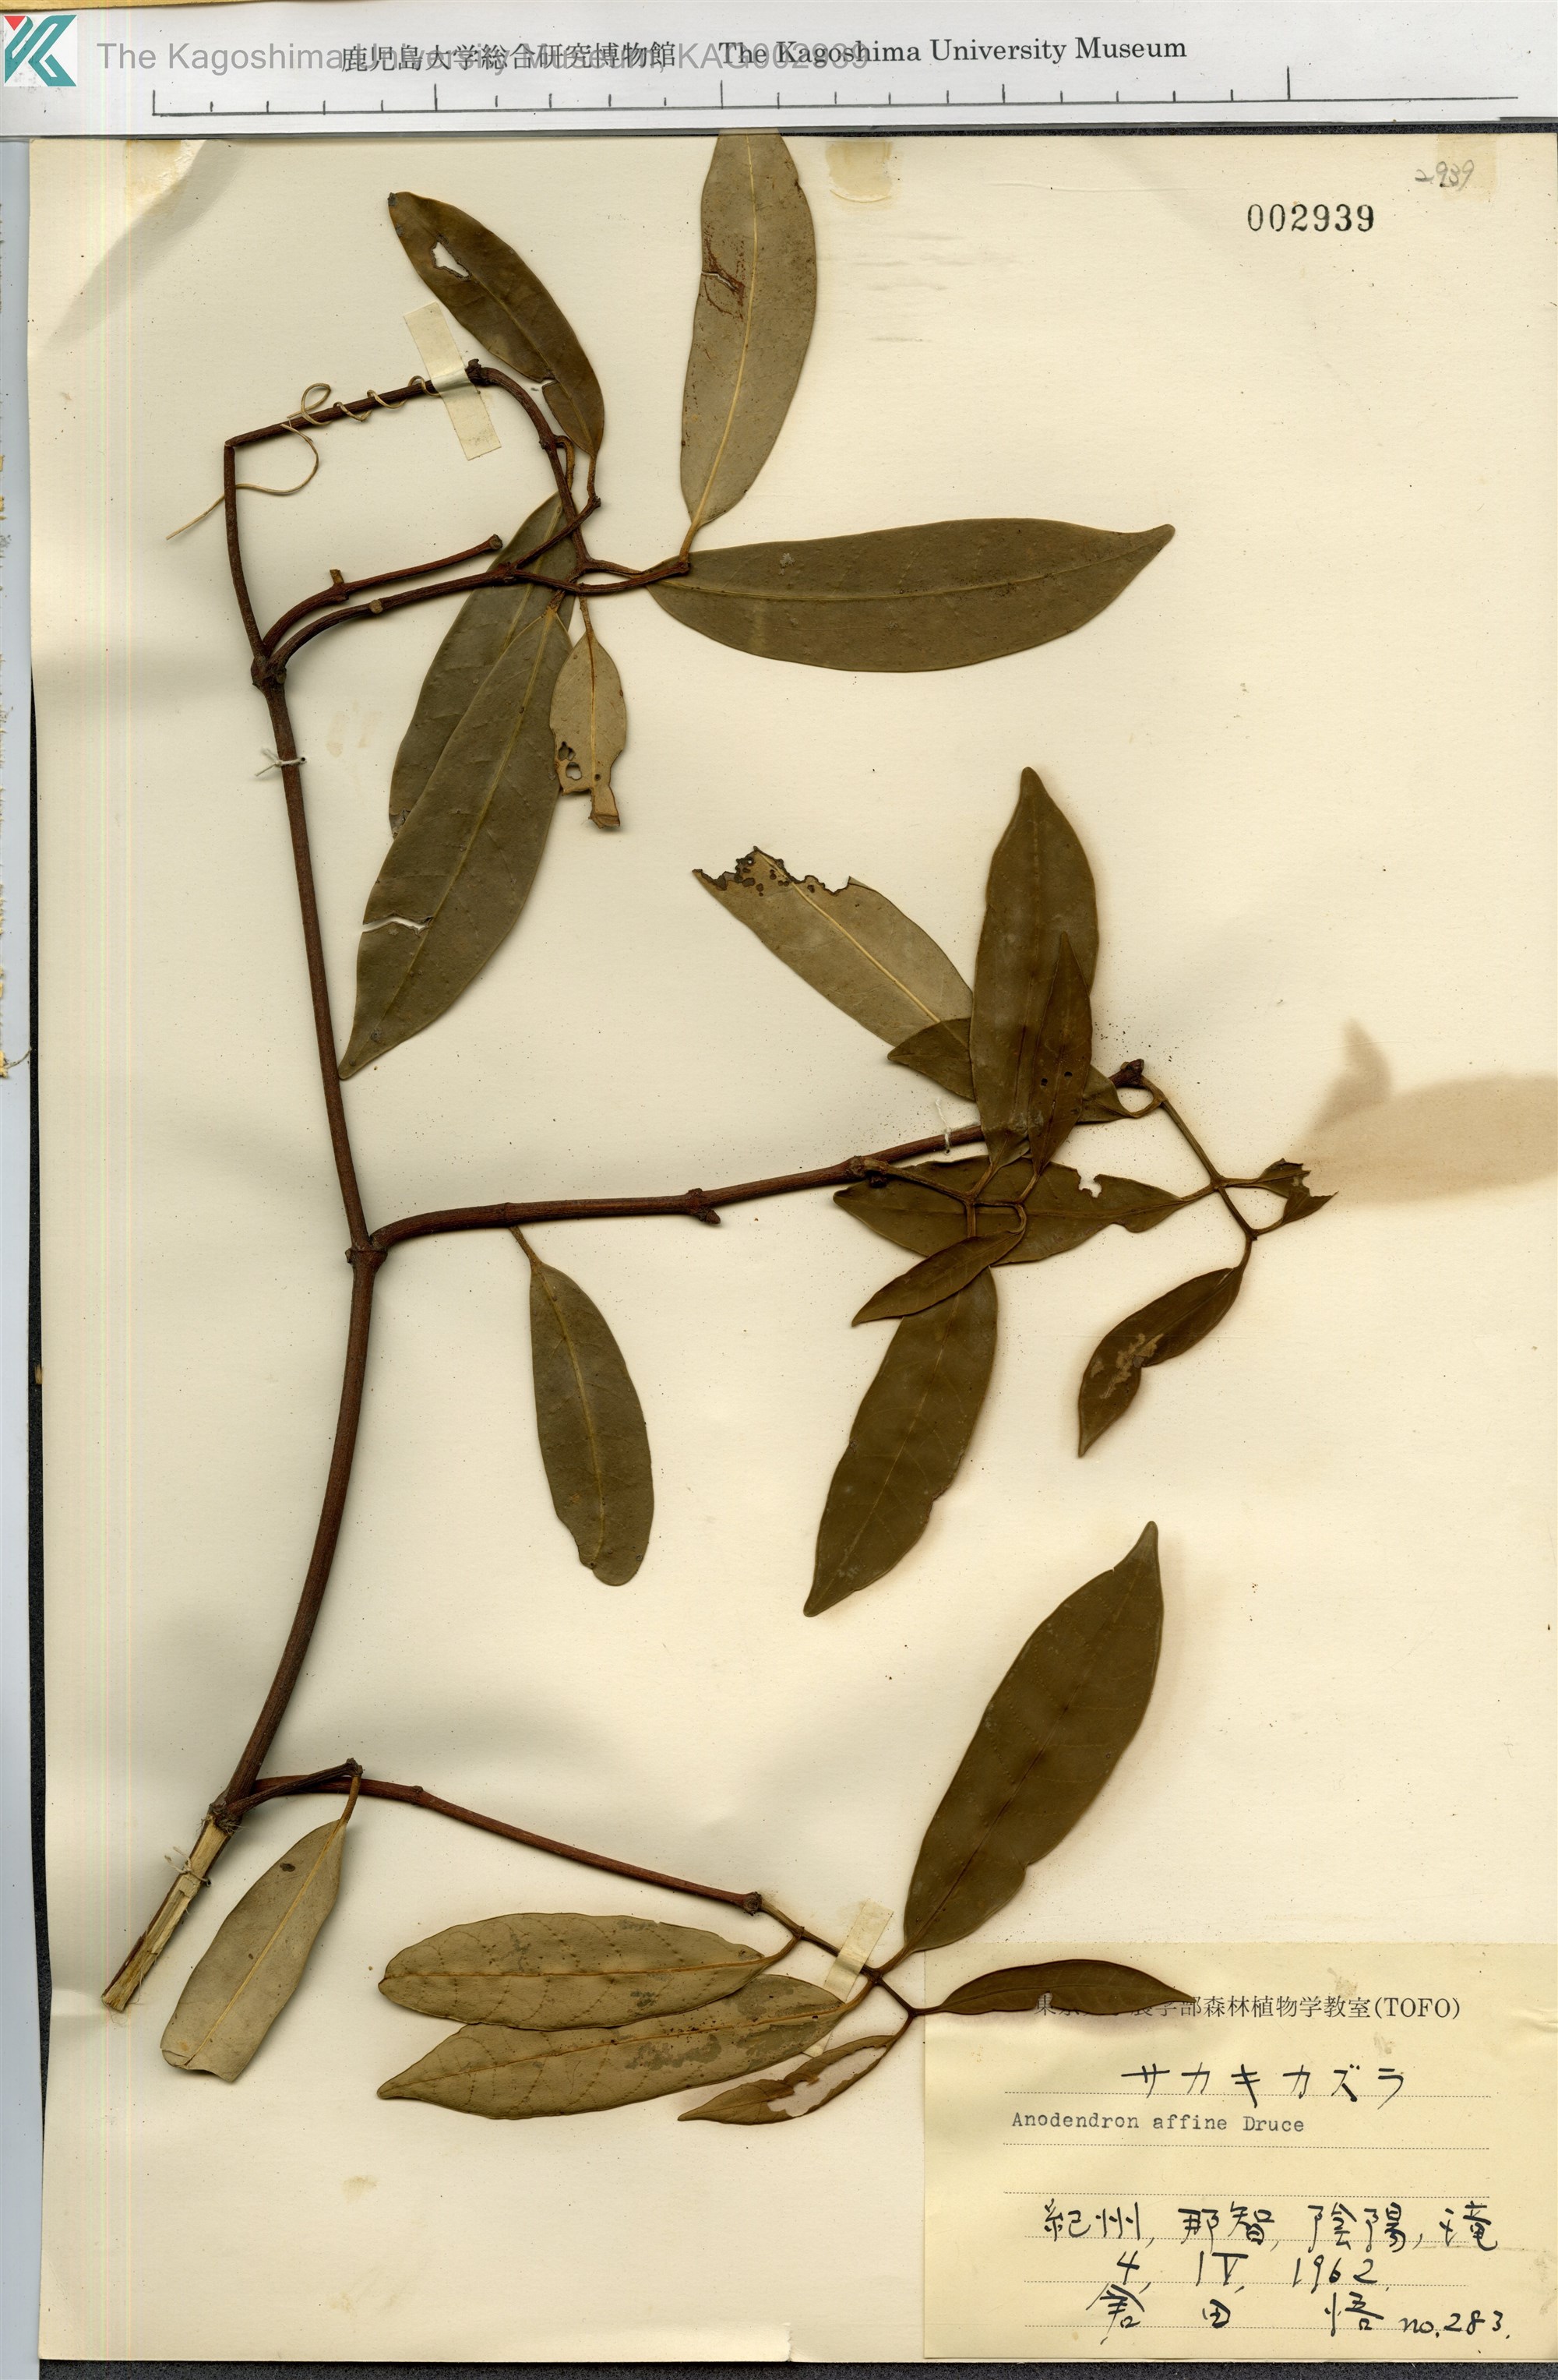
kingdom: Plantae
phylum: Tracheophyta
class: Magnoliopsida
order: Gentianales
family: Apocynaceae
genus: Anodendron
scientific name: Anodendron affine
